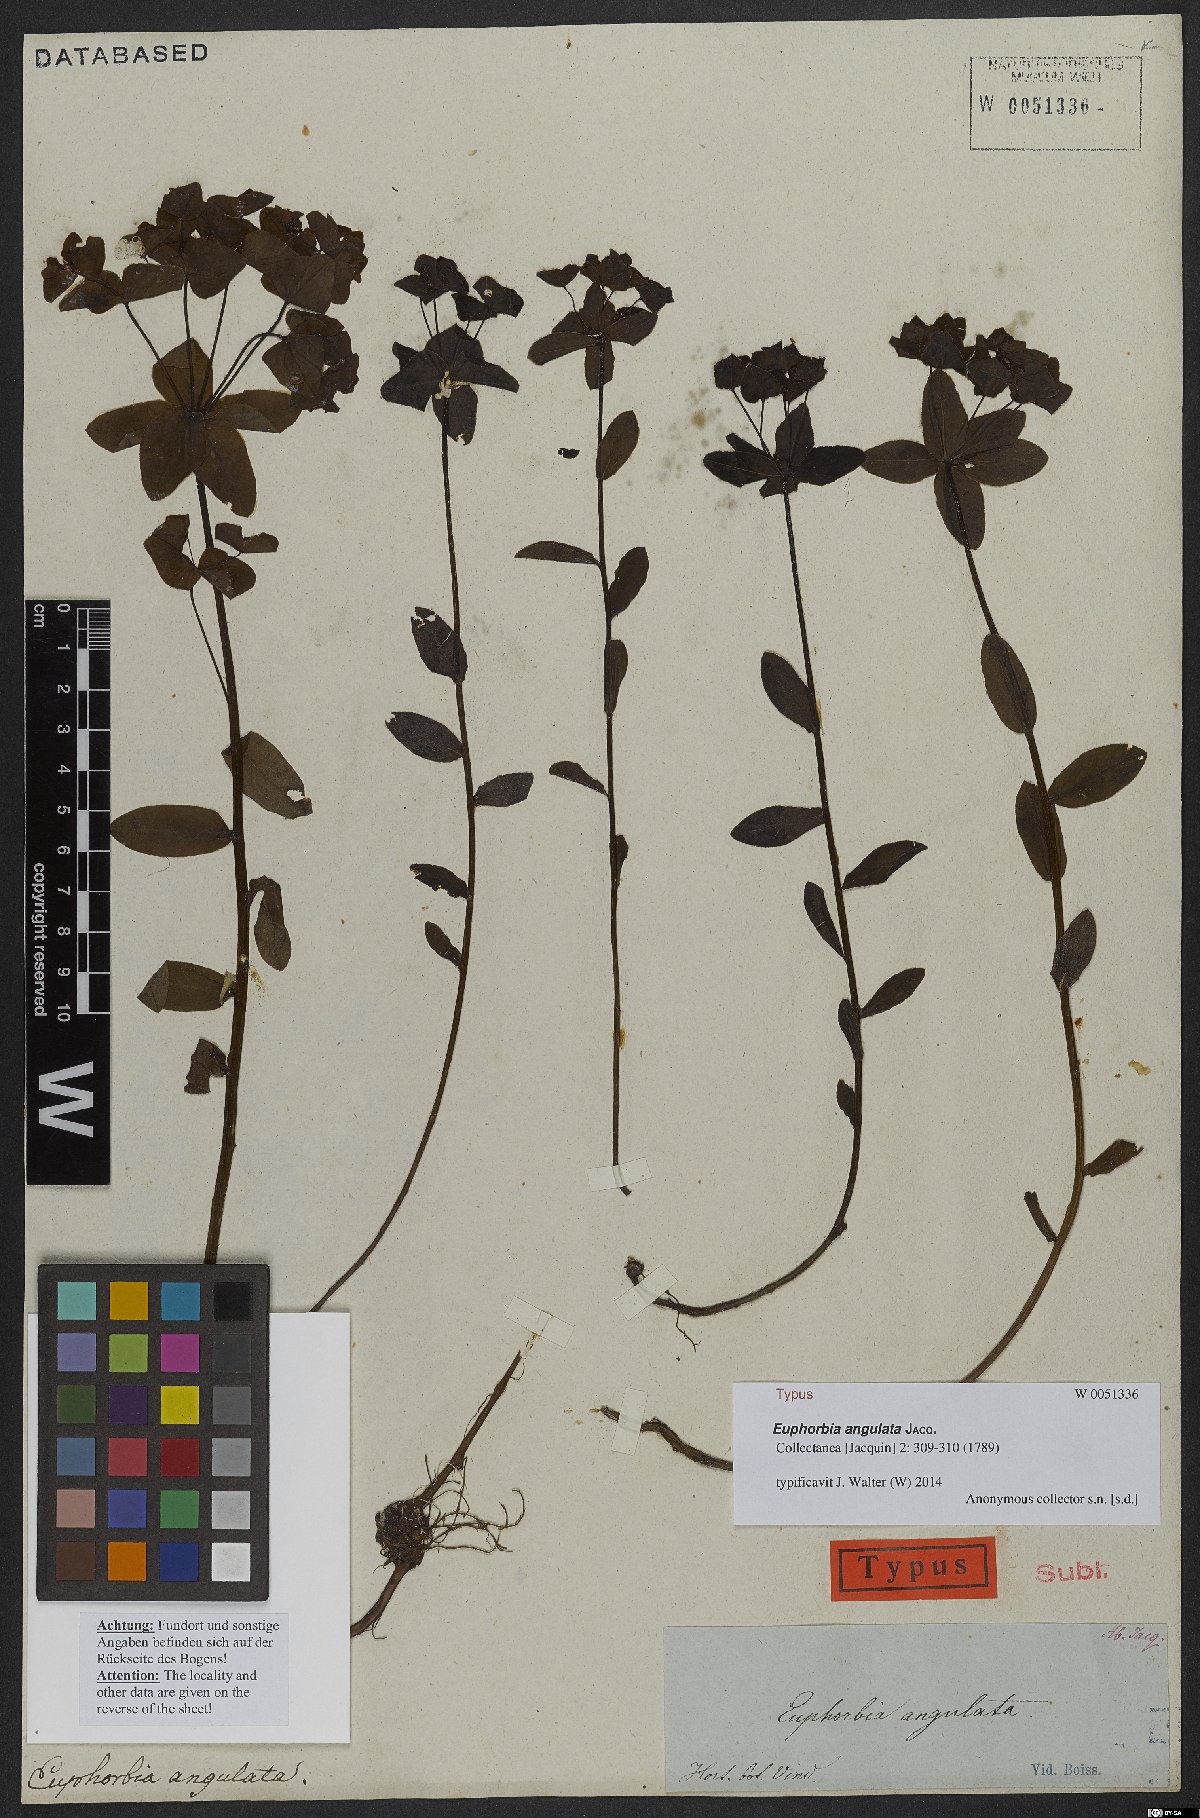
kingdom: Plantae
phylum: Tracheophyta
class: Magnoliopsida
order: Malpighiales
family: Euphorbiaceae
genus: Euphorbia
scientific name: Euphorbia angulata
